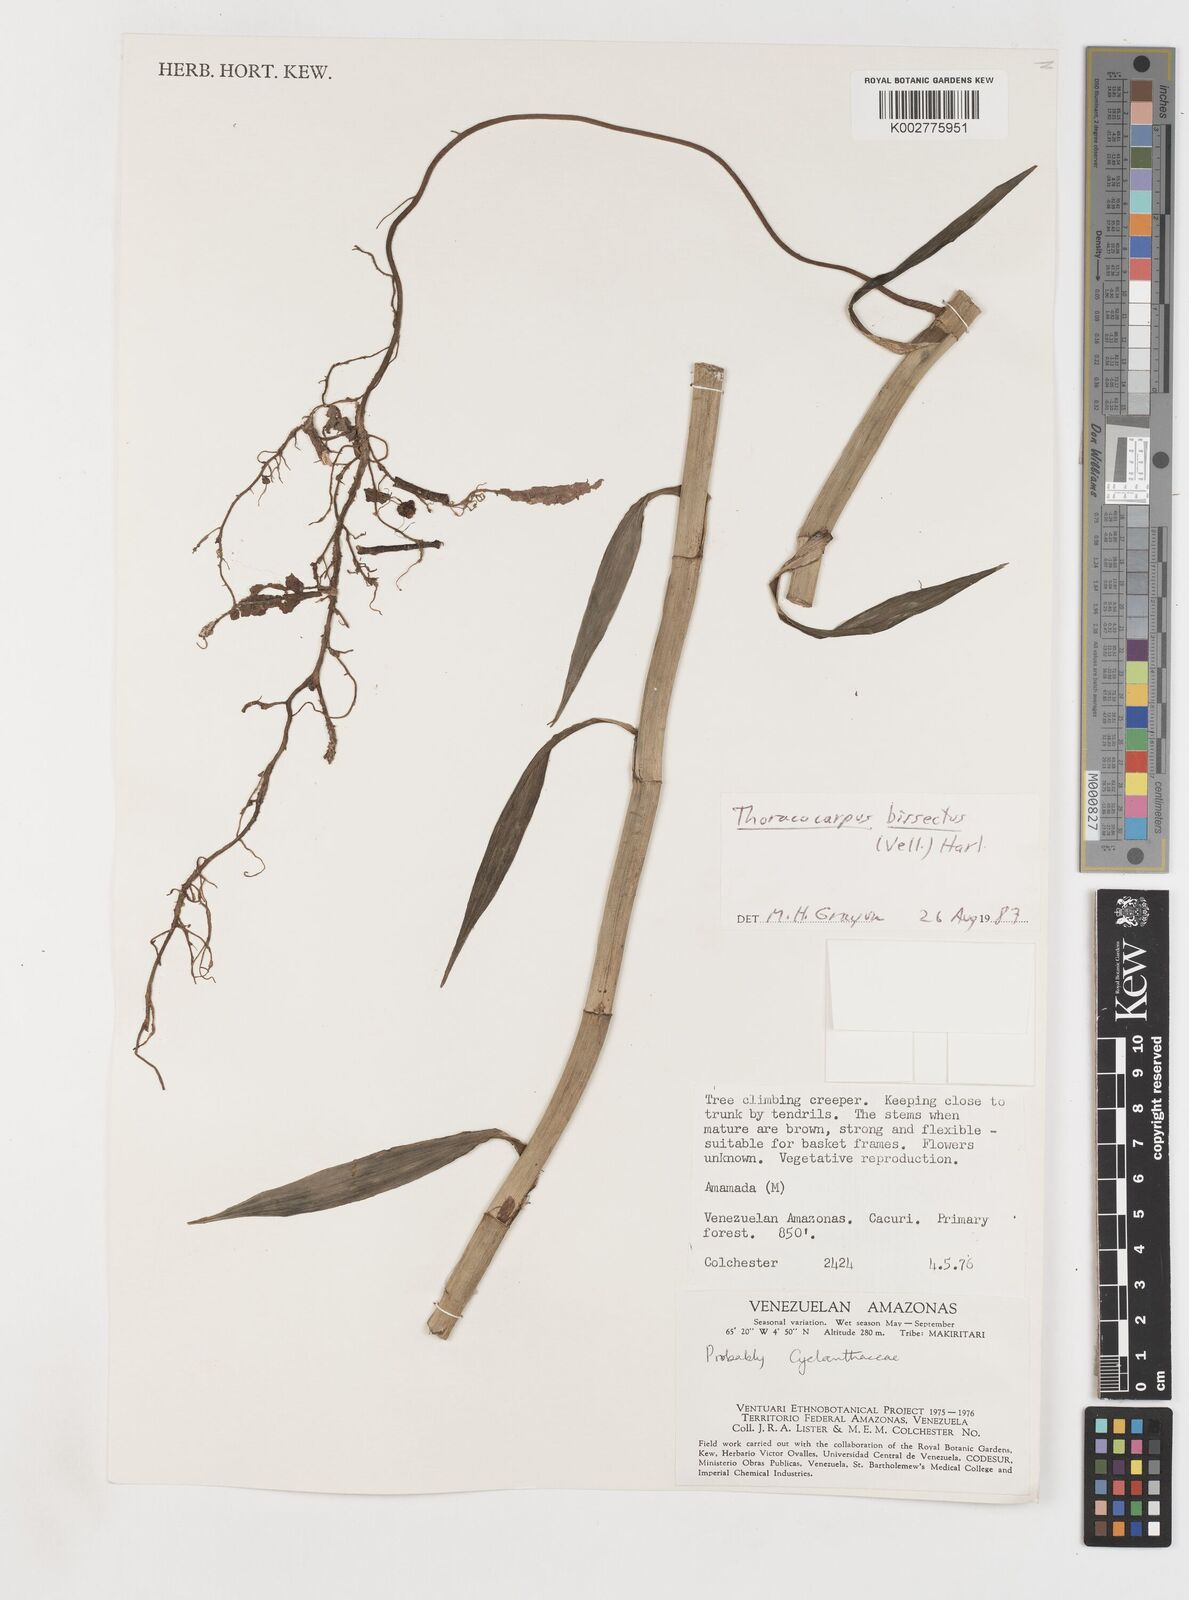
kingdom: Plantae
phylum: Tracheophyta
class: Liliopsida
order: Pandanales
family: Cyclanthaceae
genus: Thoracocarpus
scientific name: Thoracocarpus bissectus
